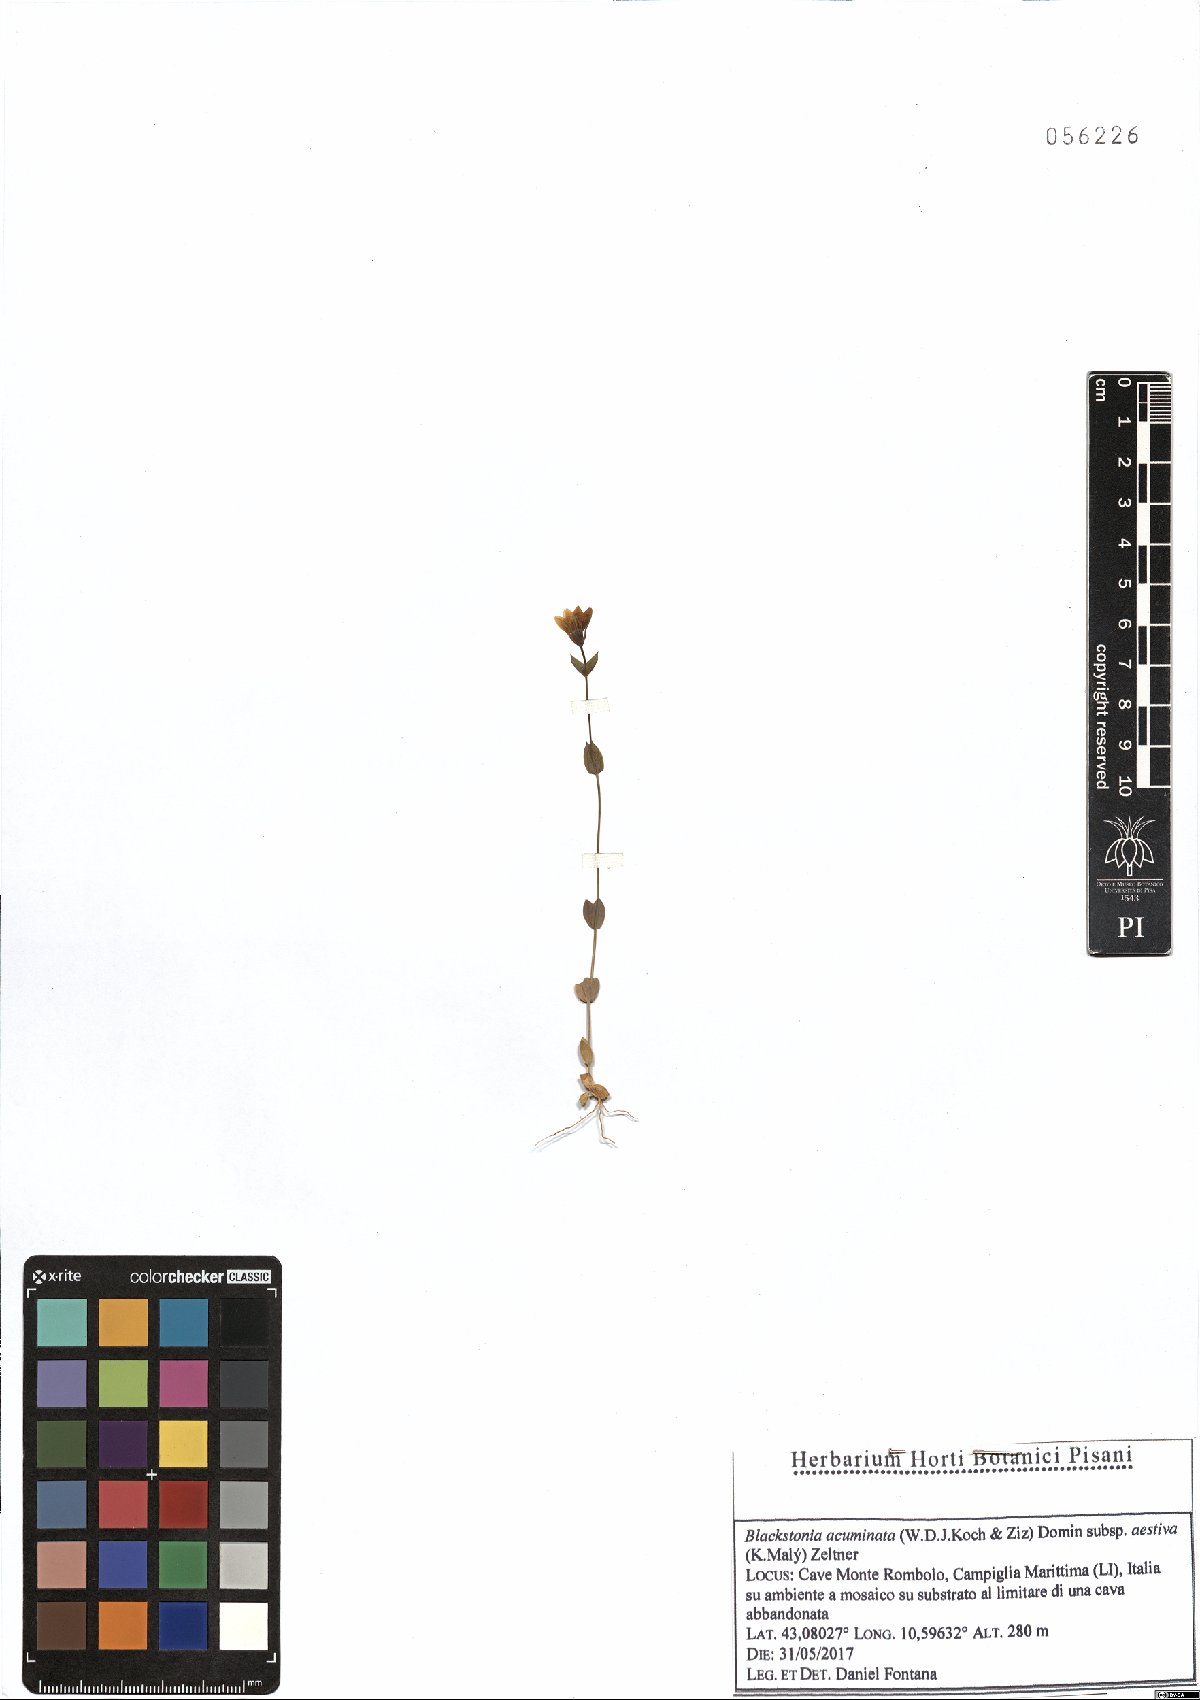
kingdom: Plantae
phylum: Tracheophyta
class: Magnoliopsida
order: Gentianales
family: Gentianaceae
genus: Blackstonia
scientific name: Blackstonia acuminata
